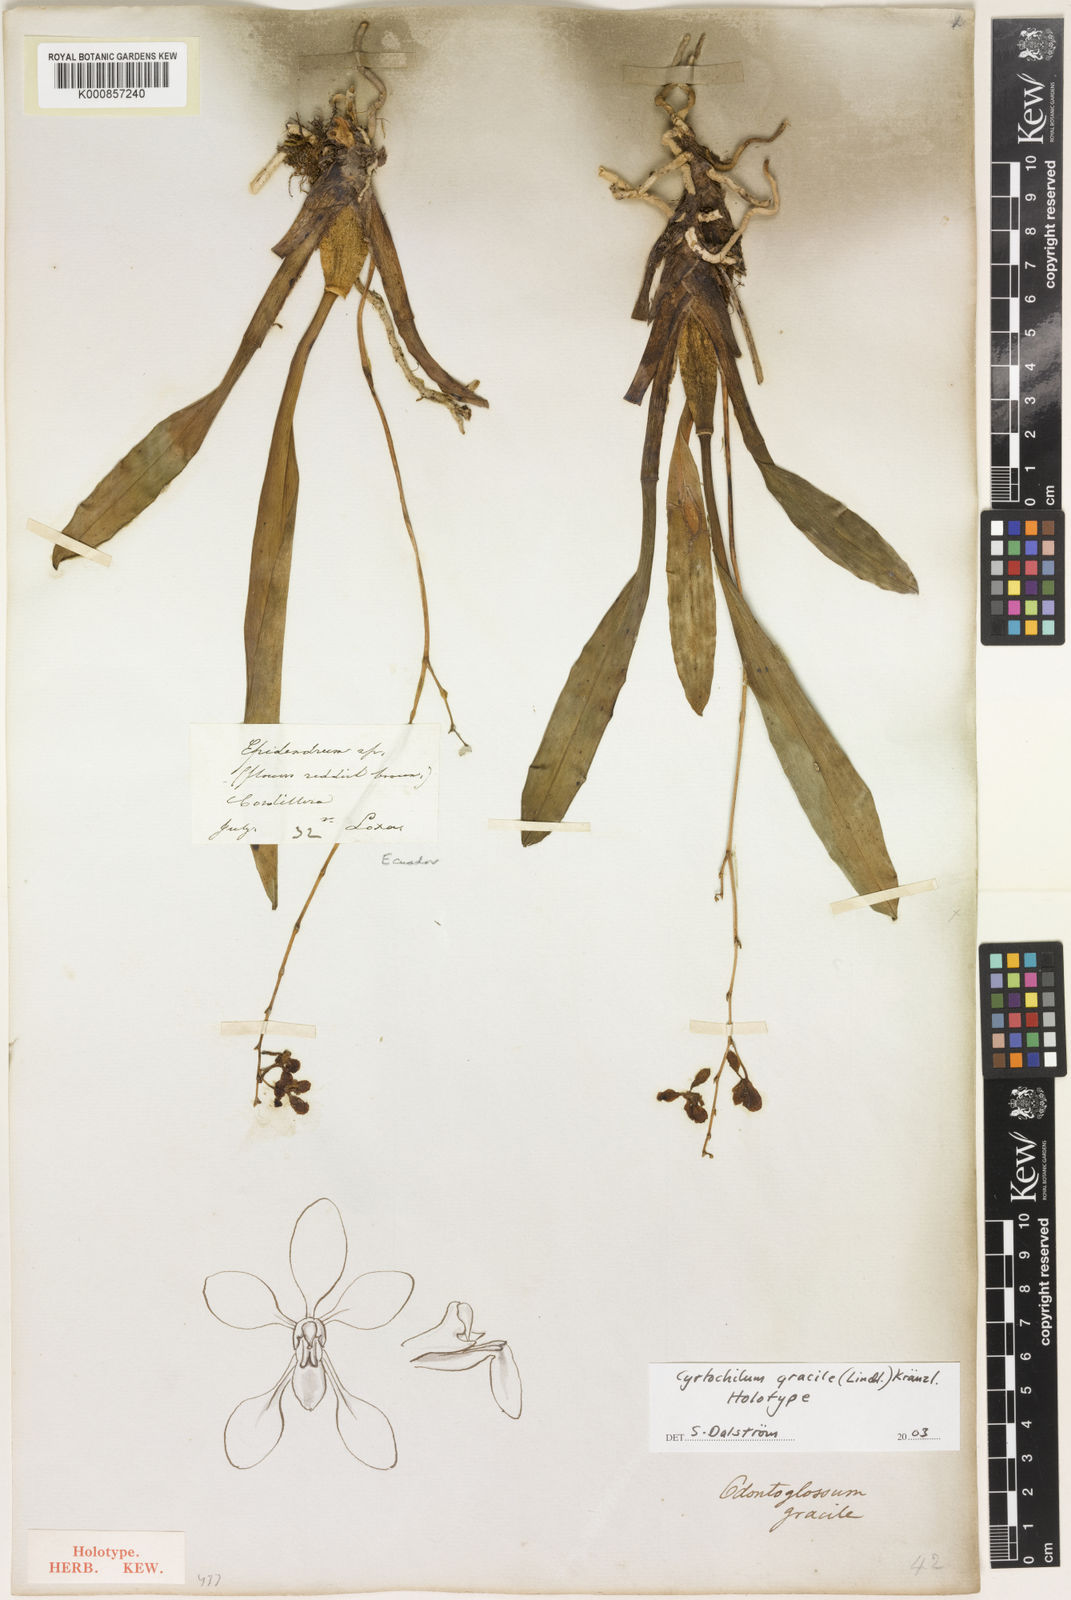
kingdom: Plantae
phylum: Tracheophyta
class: Liliopsida
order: Asparagales
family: Orchidaceae
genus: Cyrtochilum
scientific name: Cyrtochilum gracile
